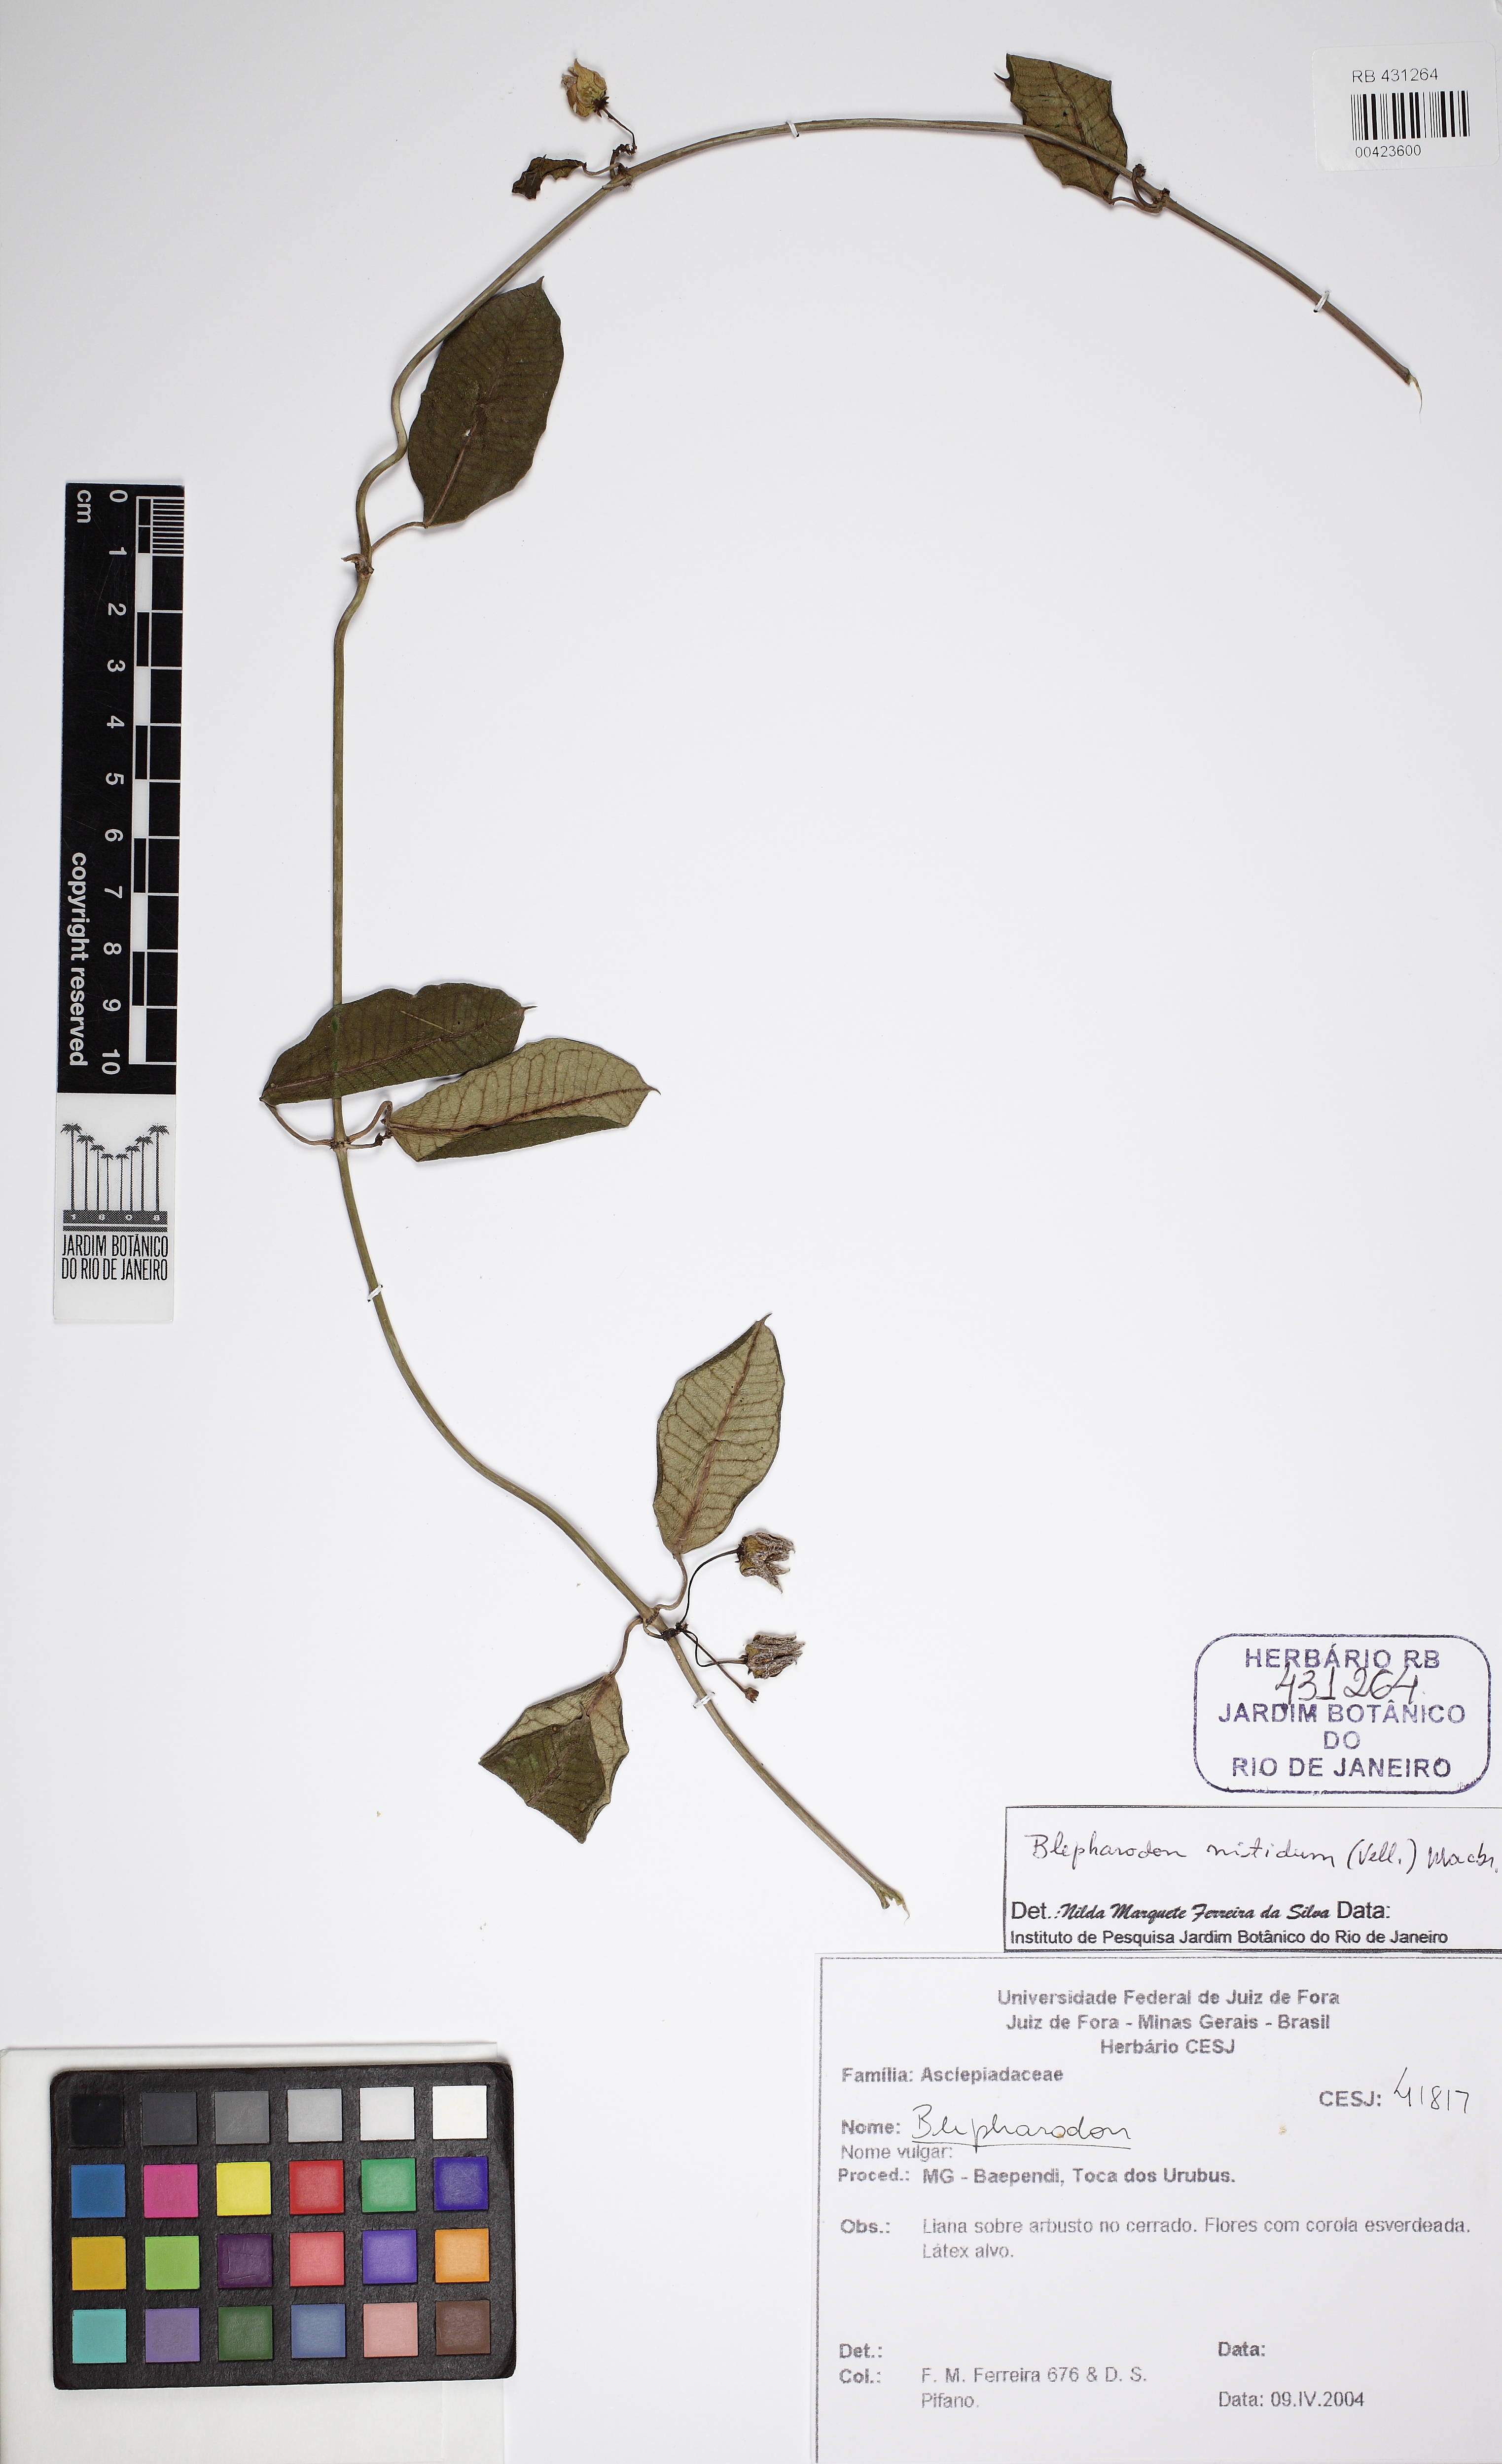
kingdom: Plantae
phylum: Tracheophyta
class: Magnoliopsida
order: Gentianales
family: Apocynaceae
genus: Blepharodon
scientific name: Blepharodon pictum
